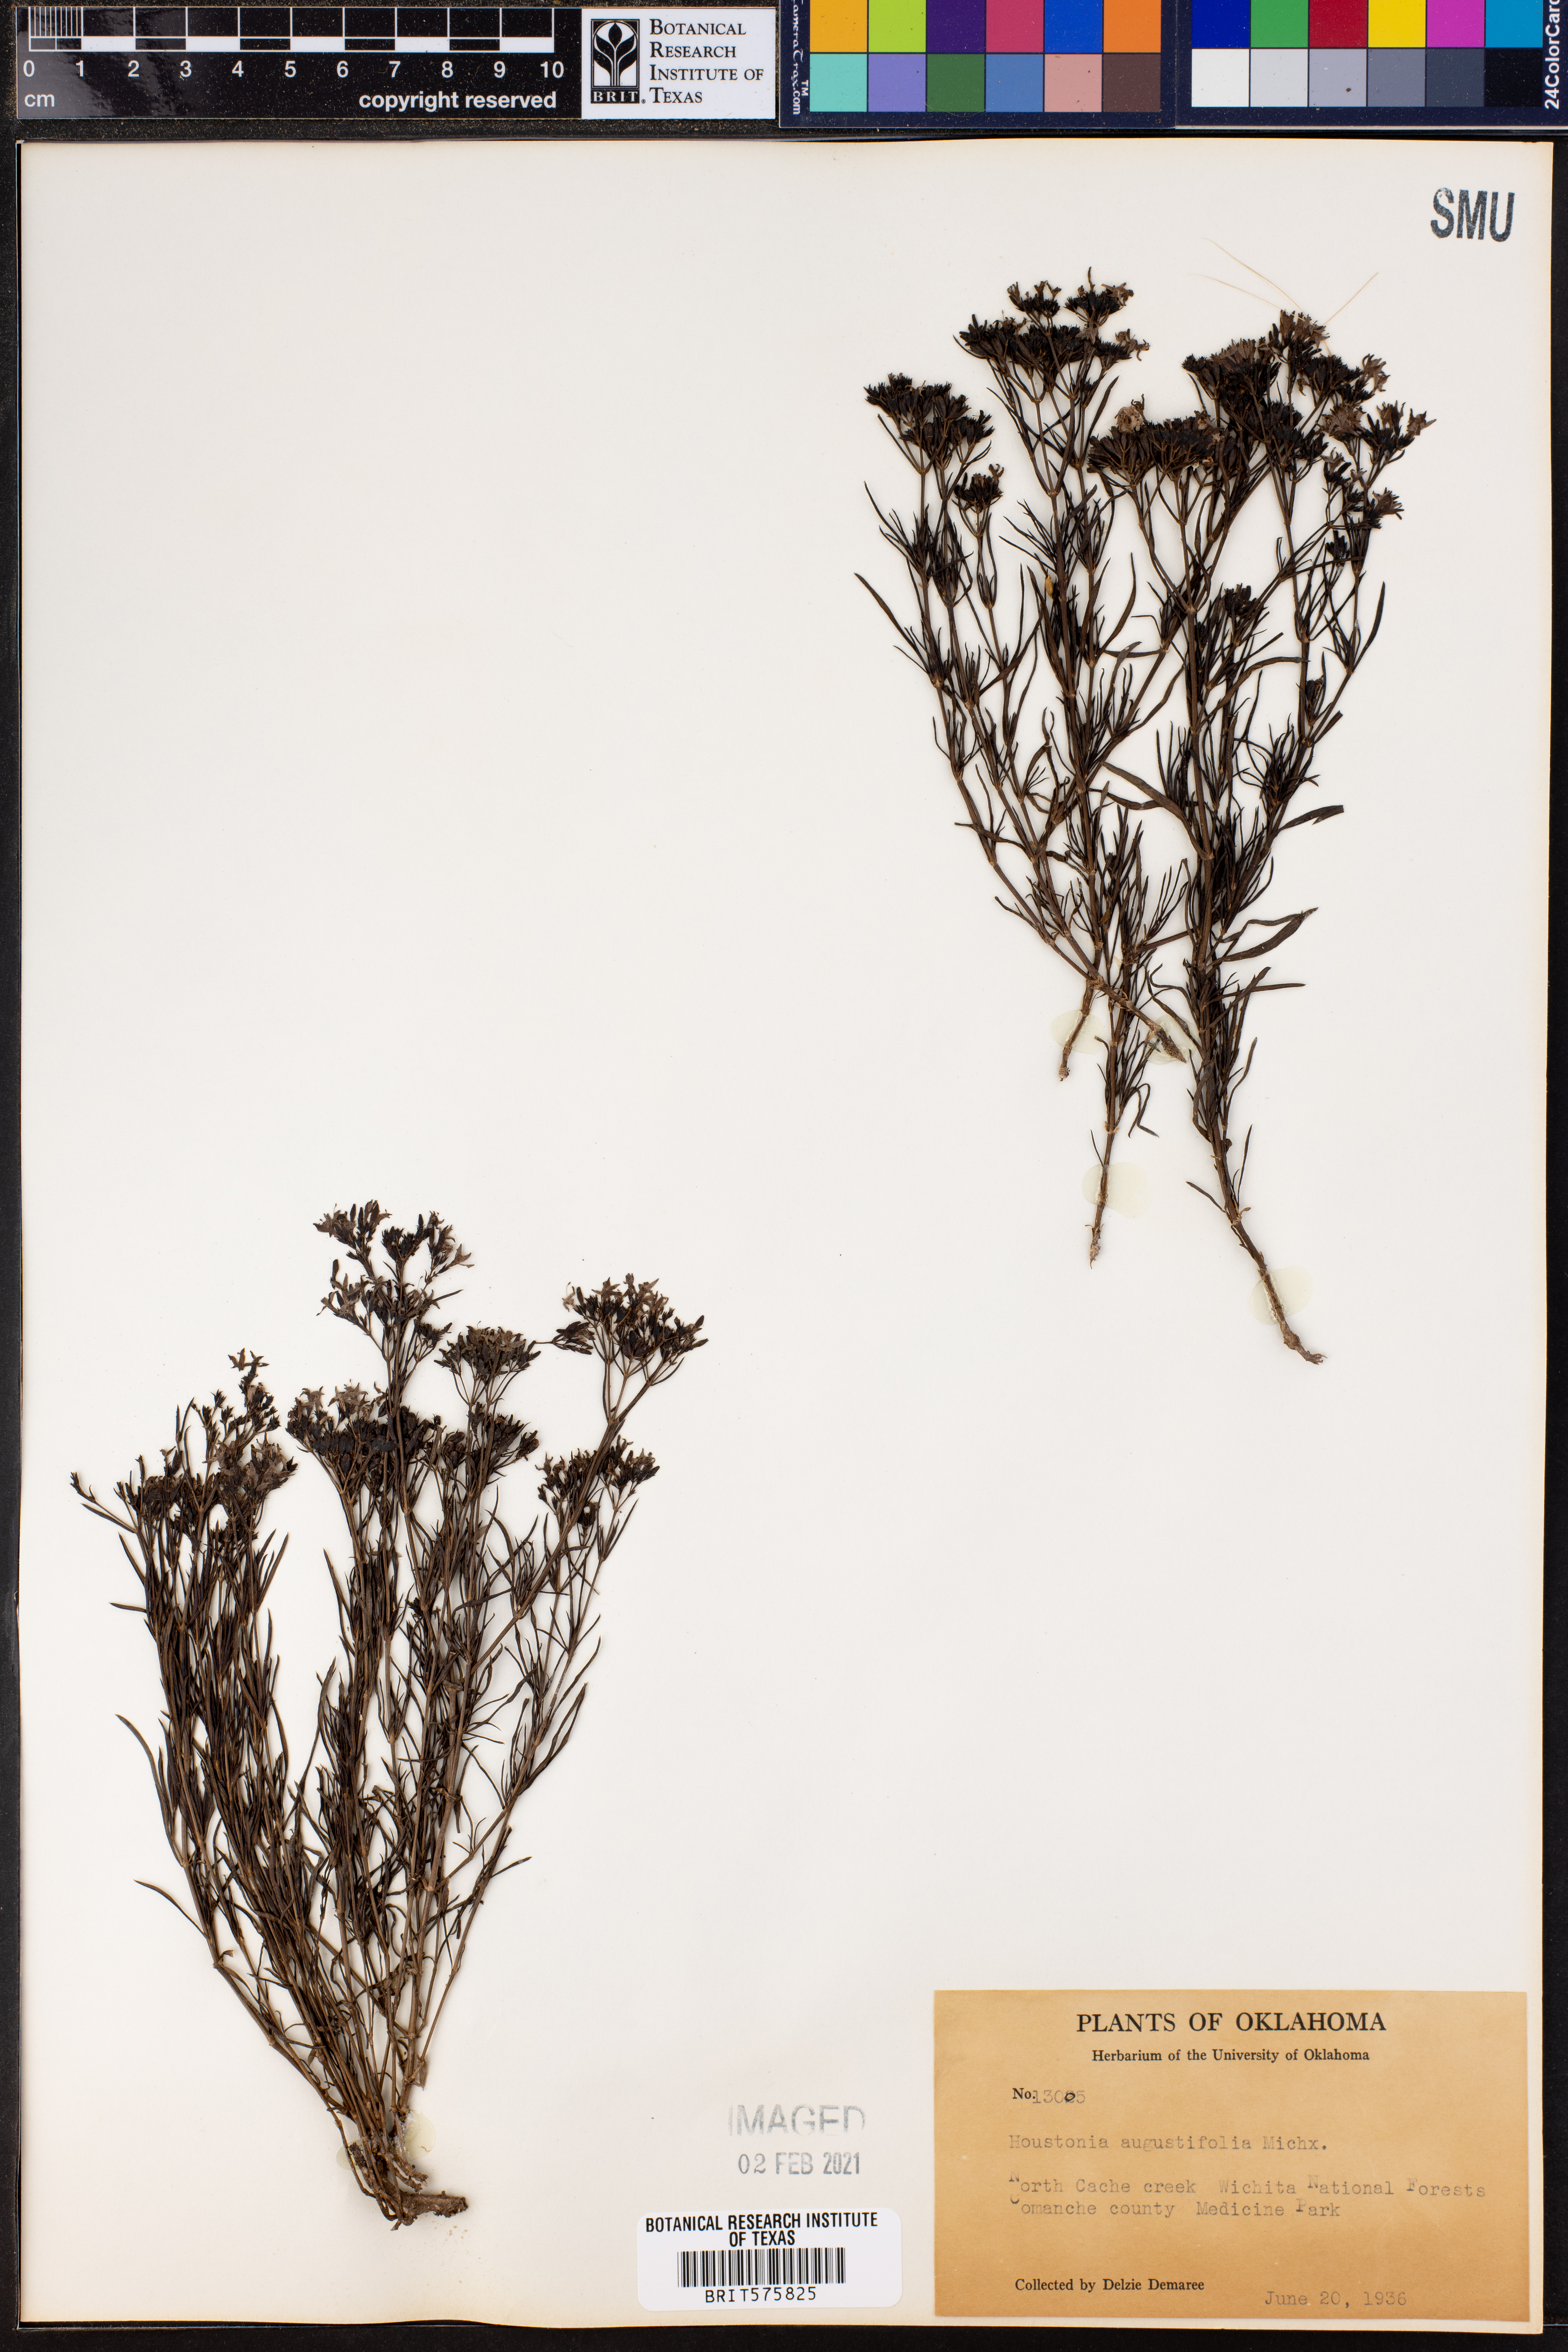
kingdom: Plantae
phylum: Tracheophyta
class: Magnoliopsida
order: Gentianales
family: Rubiaceae
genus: Stenaria
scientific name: Stenaria nigricans
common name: Diamondflowers
